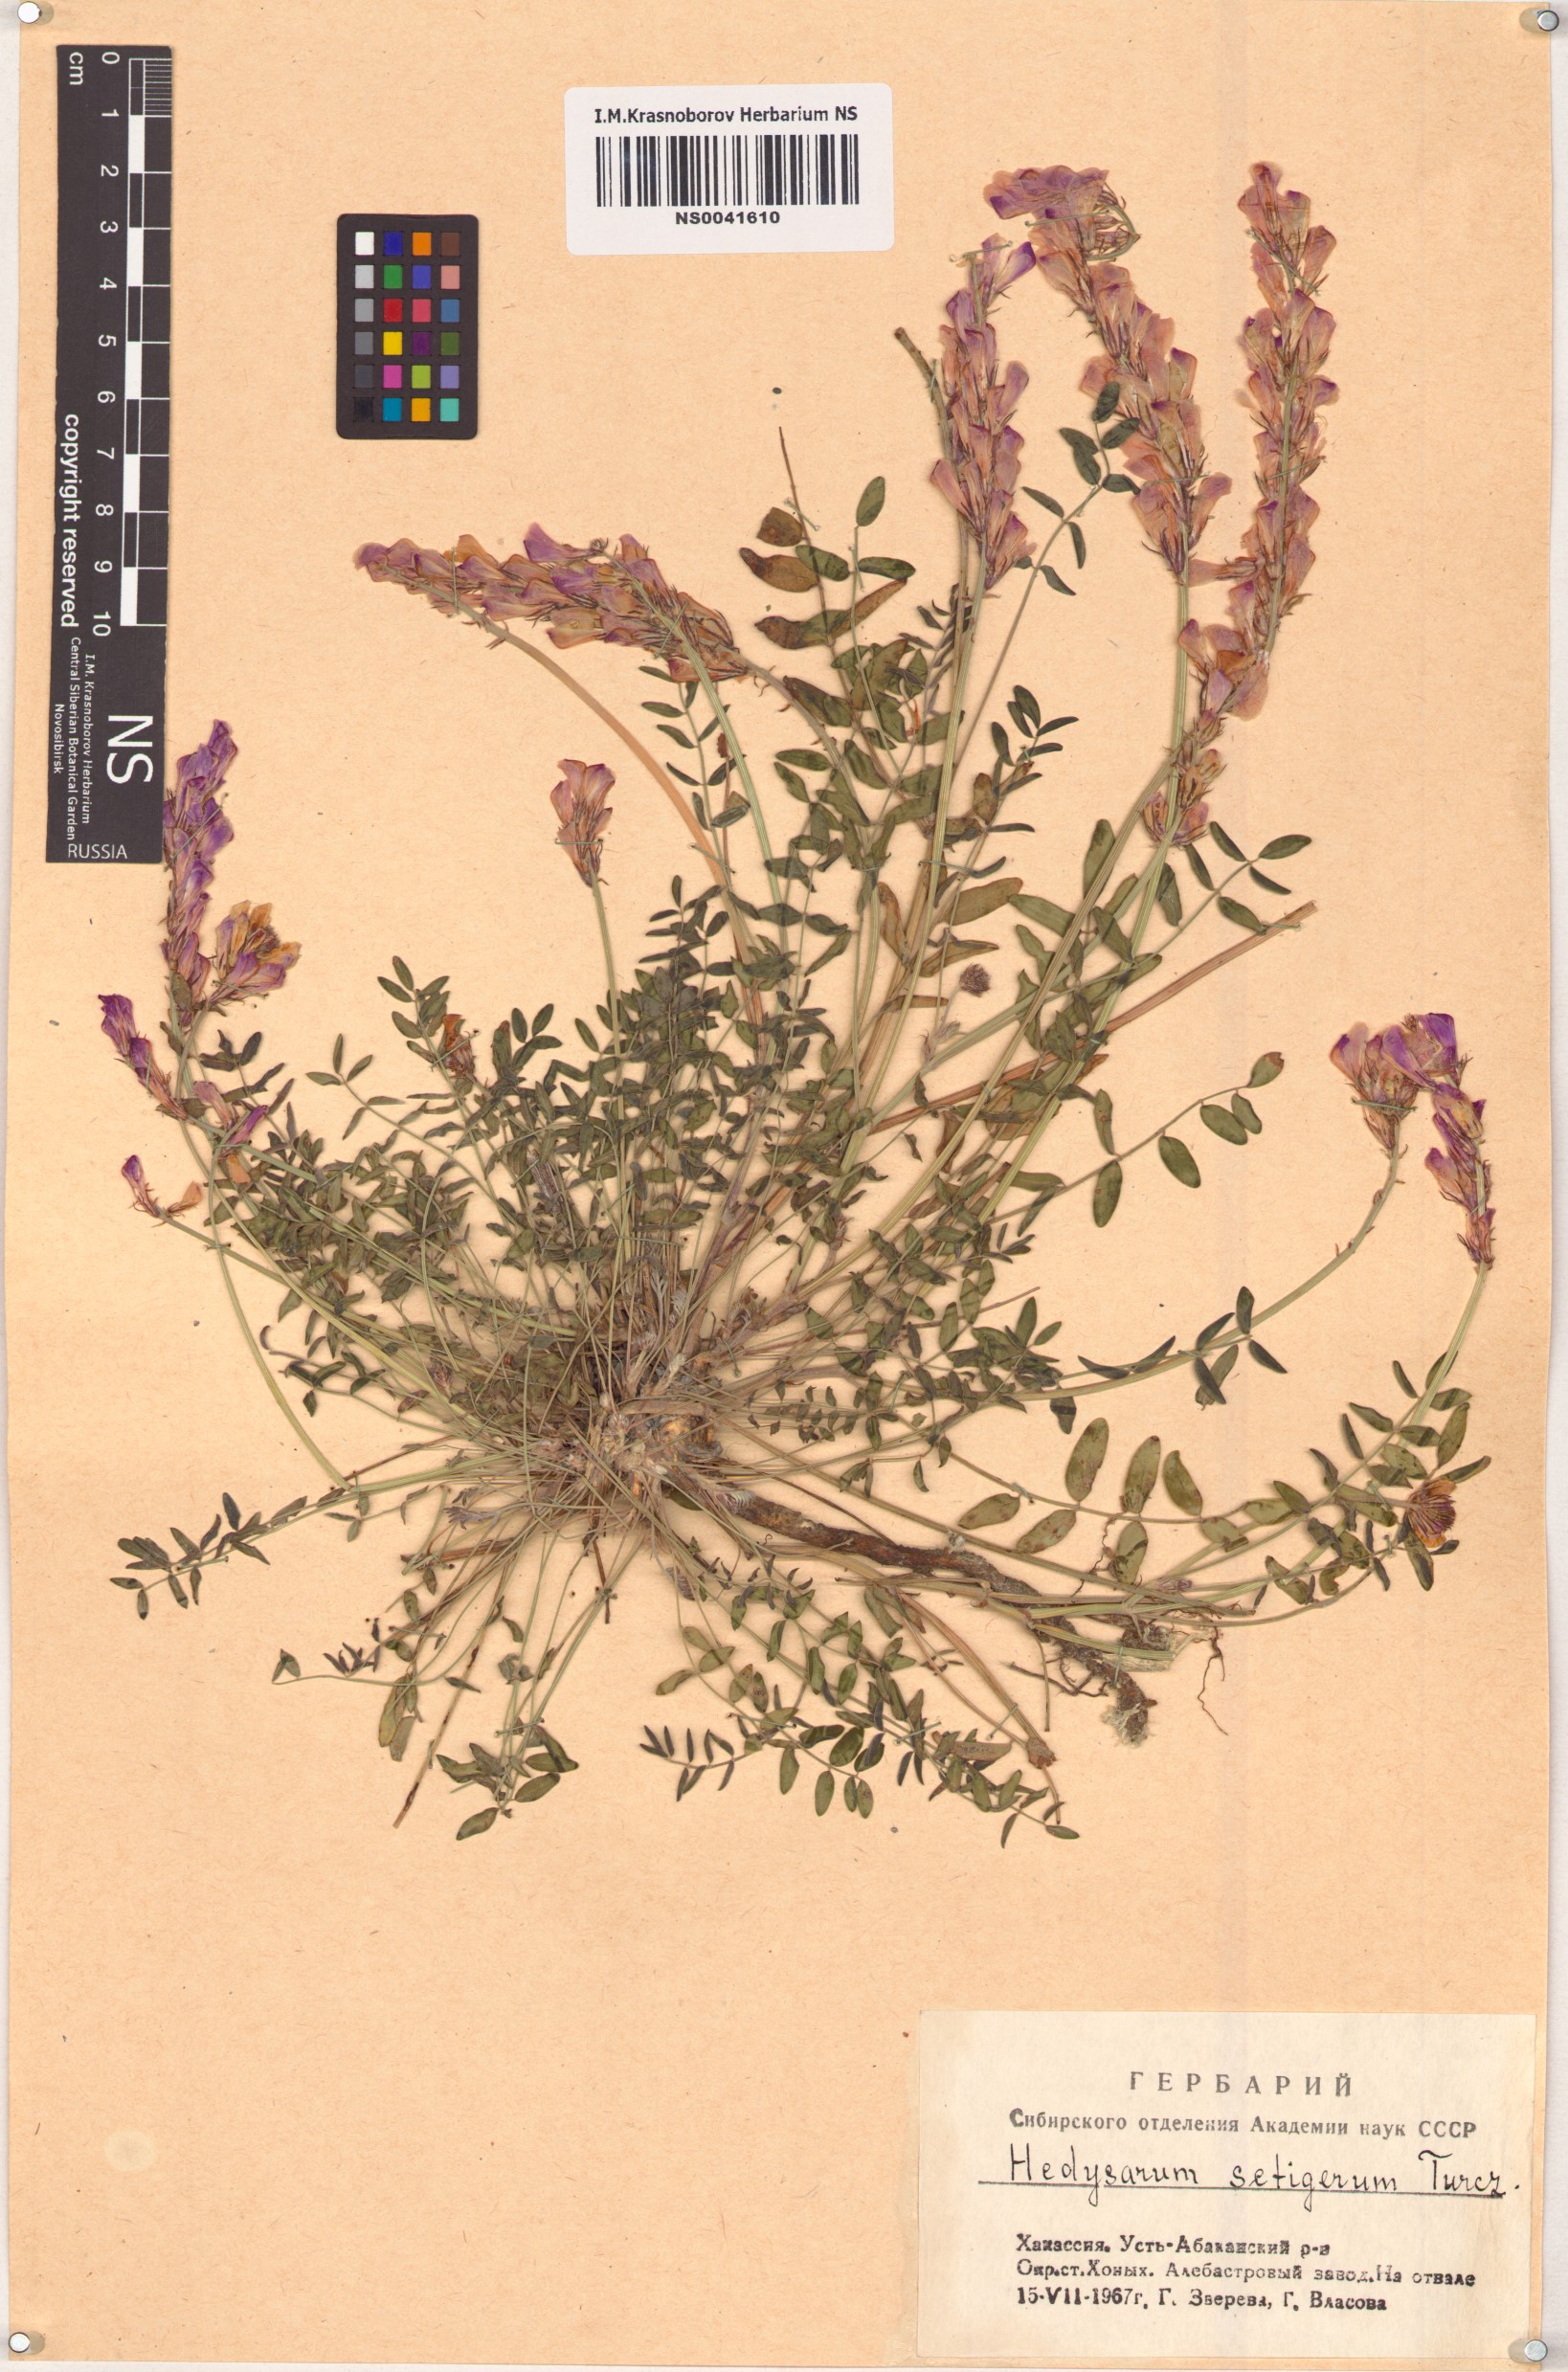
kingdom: Plantae
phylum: Tracheophyta
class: Magnoliopsida
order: Fabales
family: Fabaceae
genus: Hedysarum
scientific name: Hedysarum setigerum
